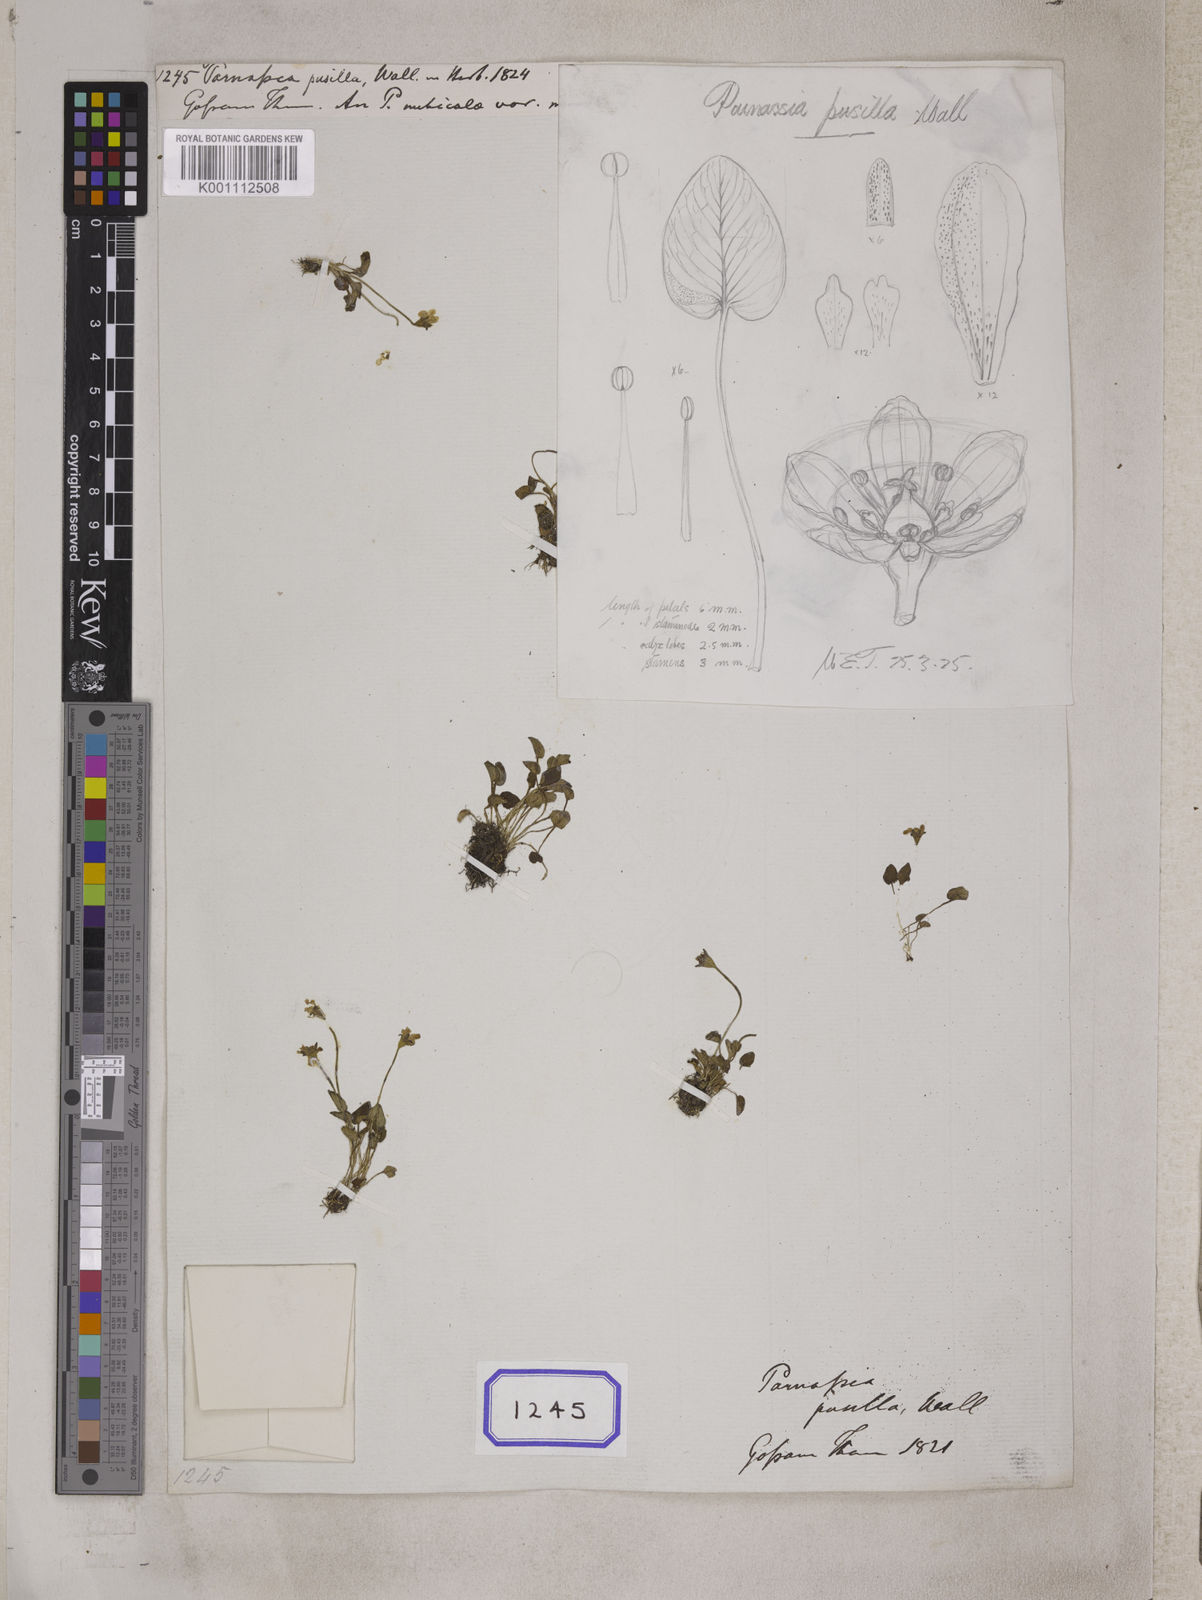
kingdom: Plantae
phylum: Tracheophyta
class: Magnoliopsida
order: Celastrales
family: Parnassiaceae
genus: Parnassia
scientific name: Parnassia pusilla
